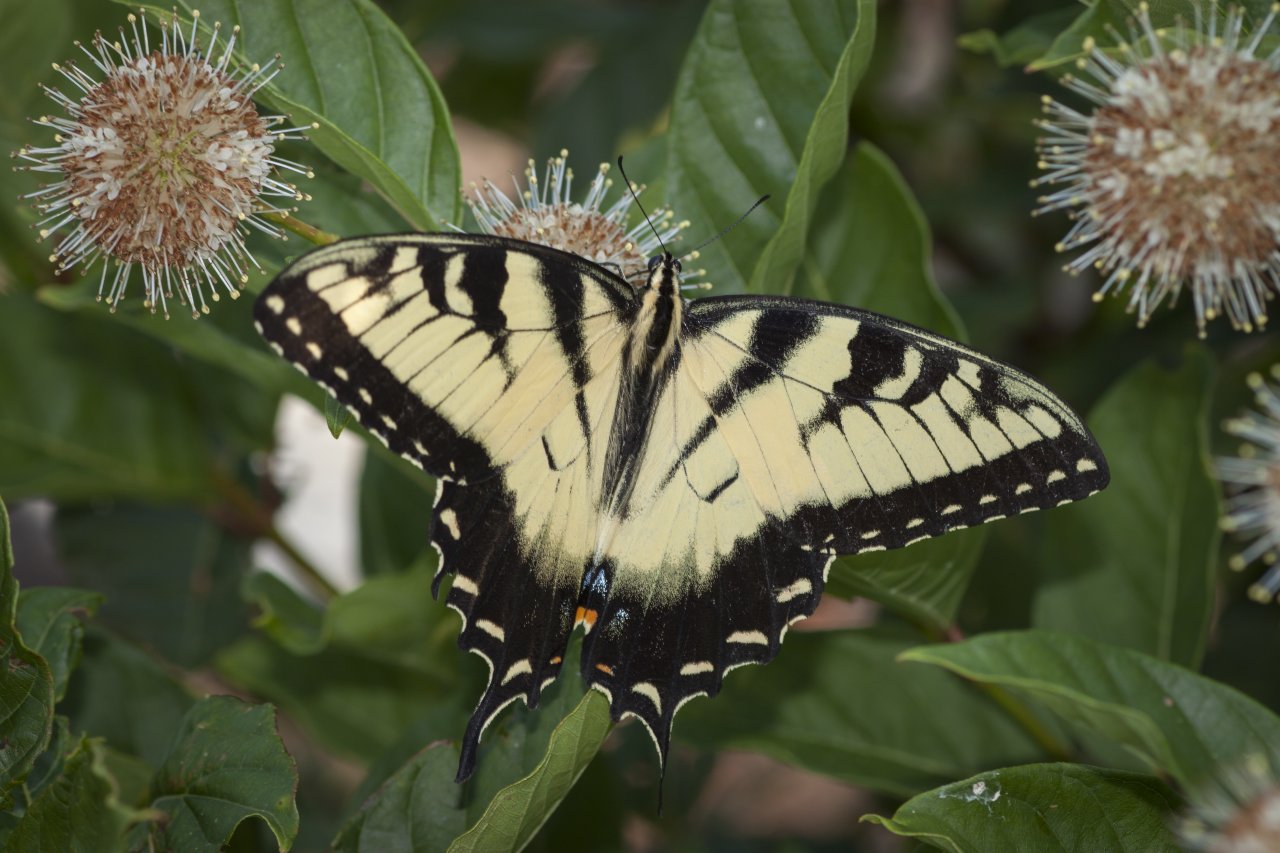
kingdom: Animalia
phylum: Arthropoda
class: Insecta
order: Lepidoptera
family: Papilionidae
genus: Pterourus
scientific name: Pterourus glaucus
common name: Eastern Tiger Swallowtail
